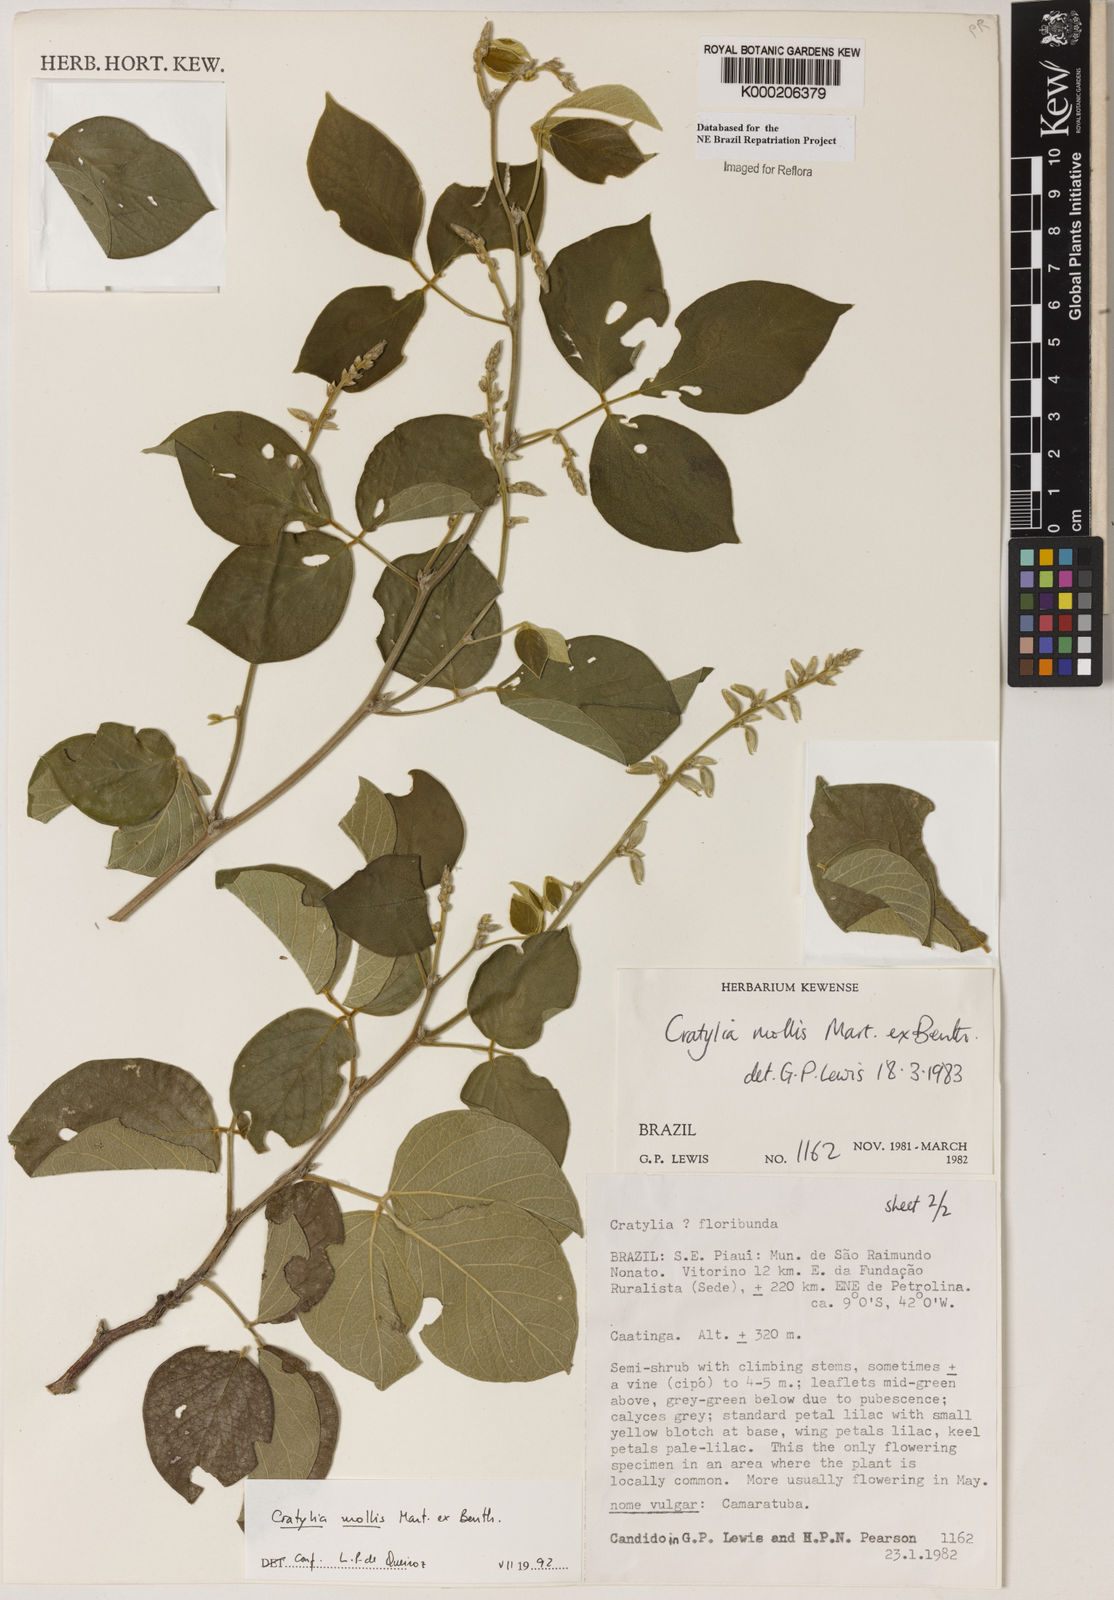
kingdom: Plantae
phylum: Tracheophyta
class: Magnoliopsida
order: Fabales
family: Fabaceae
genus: Cratylia
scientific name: Cratylia mollis
